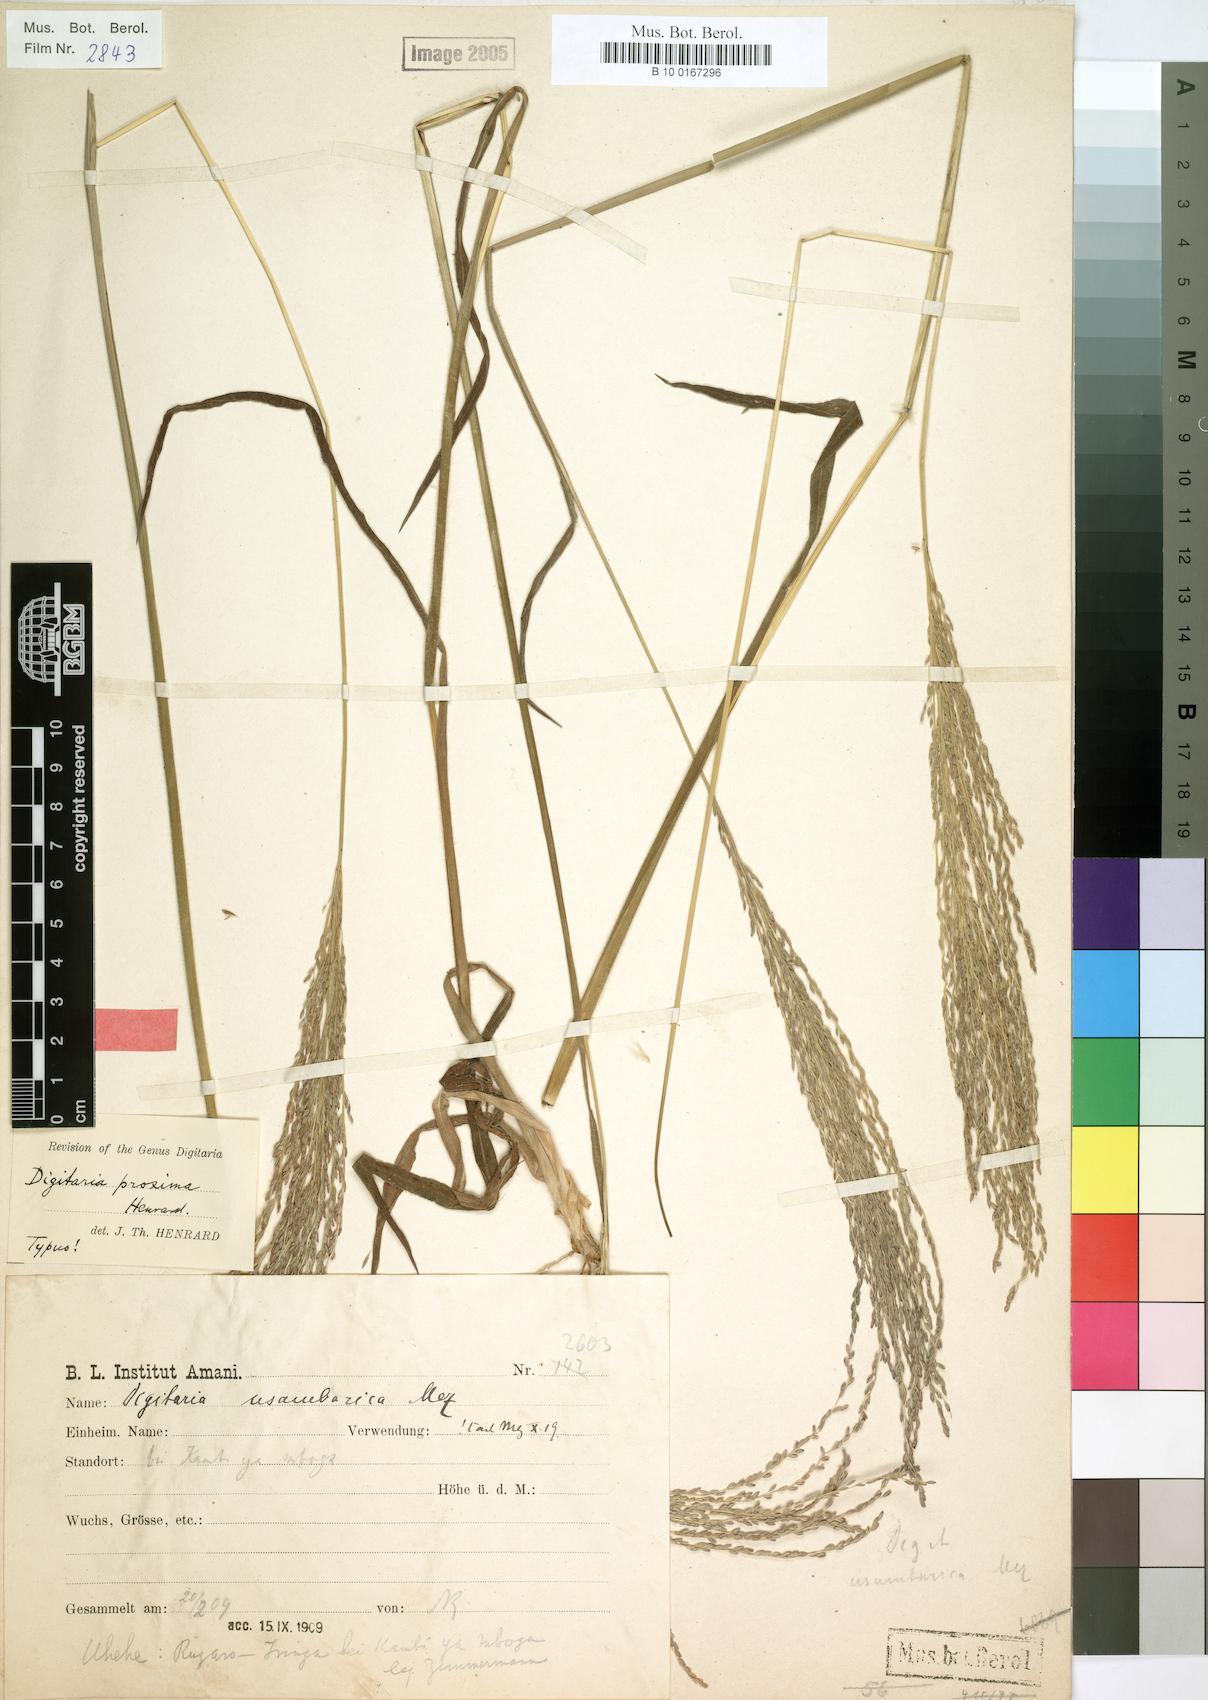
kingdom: Plantae
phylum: Tracheophyta
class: Liliopsida
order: Poales
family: Poaceae
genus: Digitaria
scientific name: Digitaria gazensis
